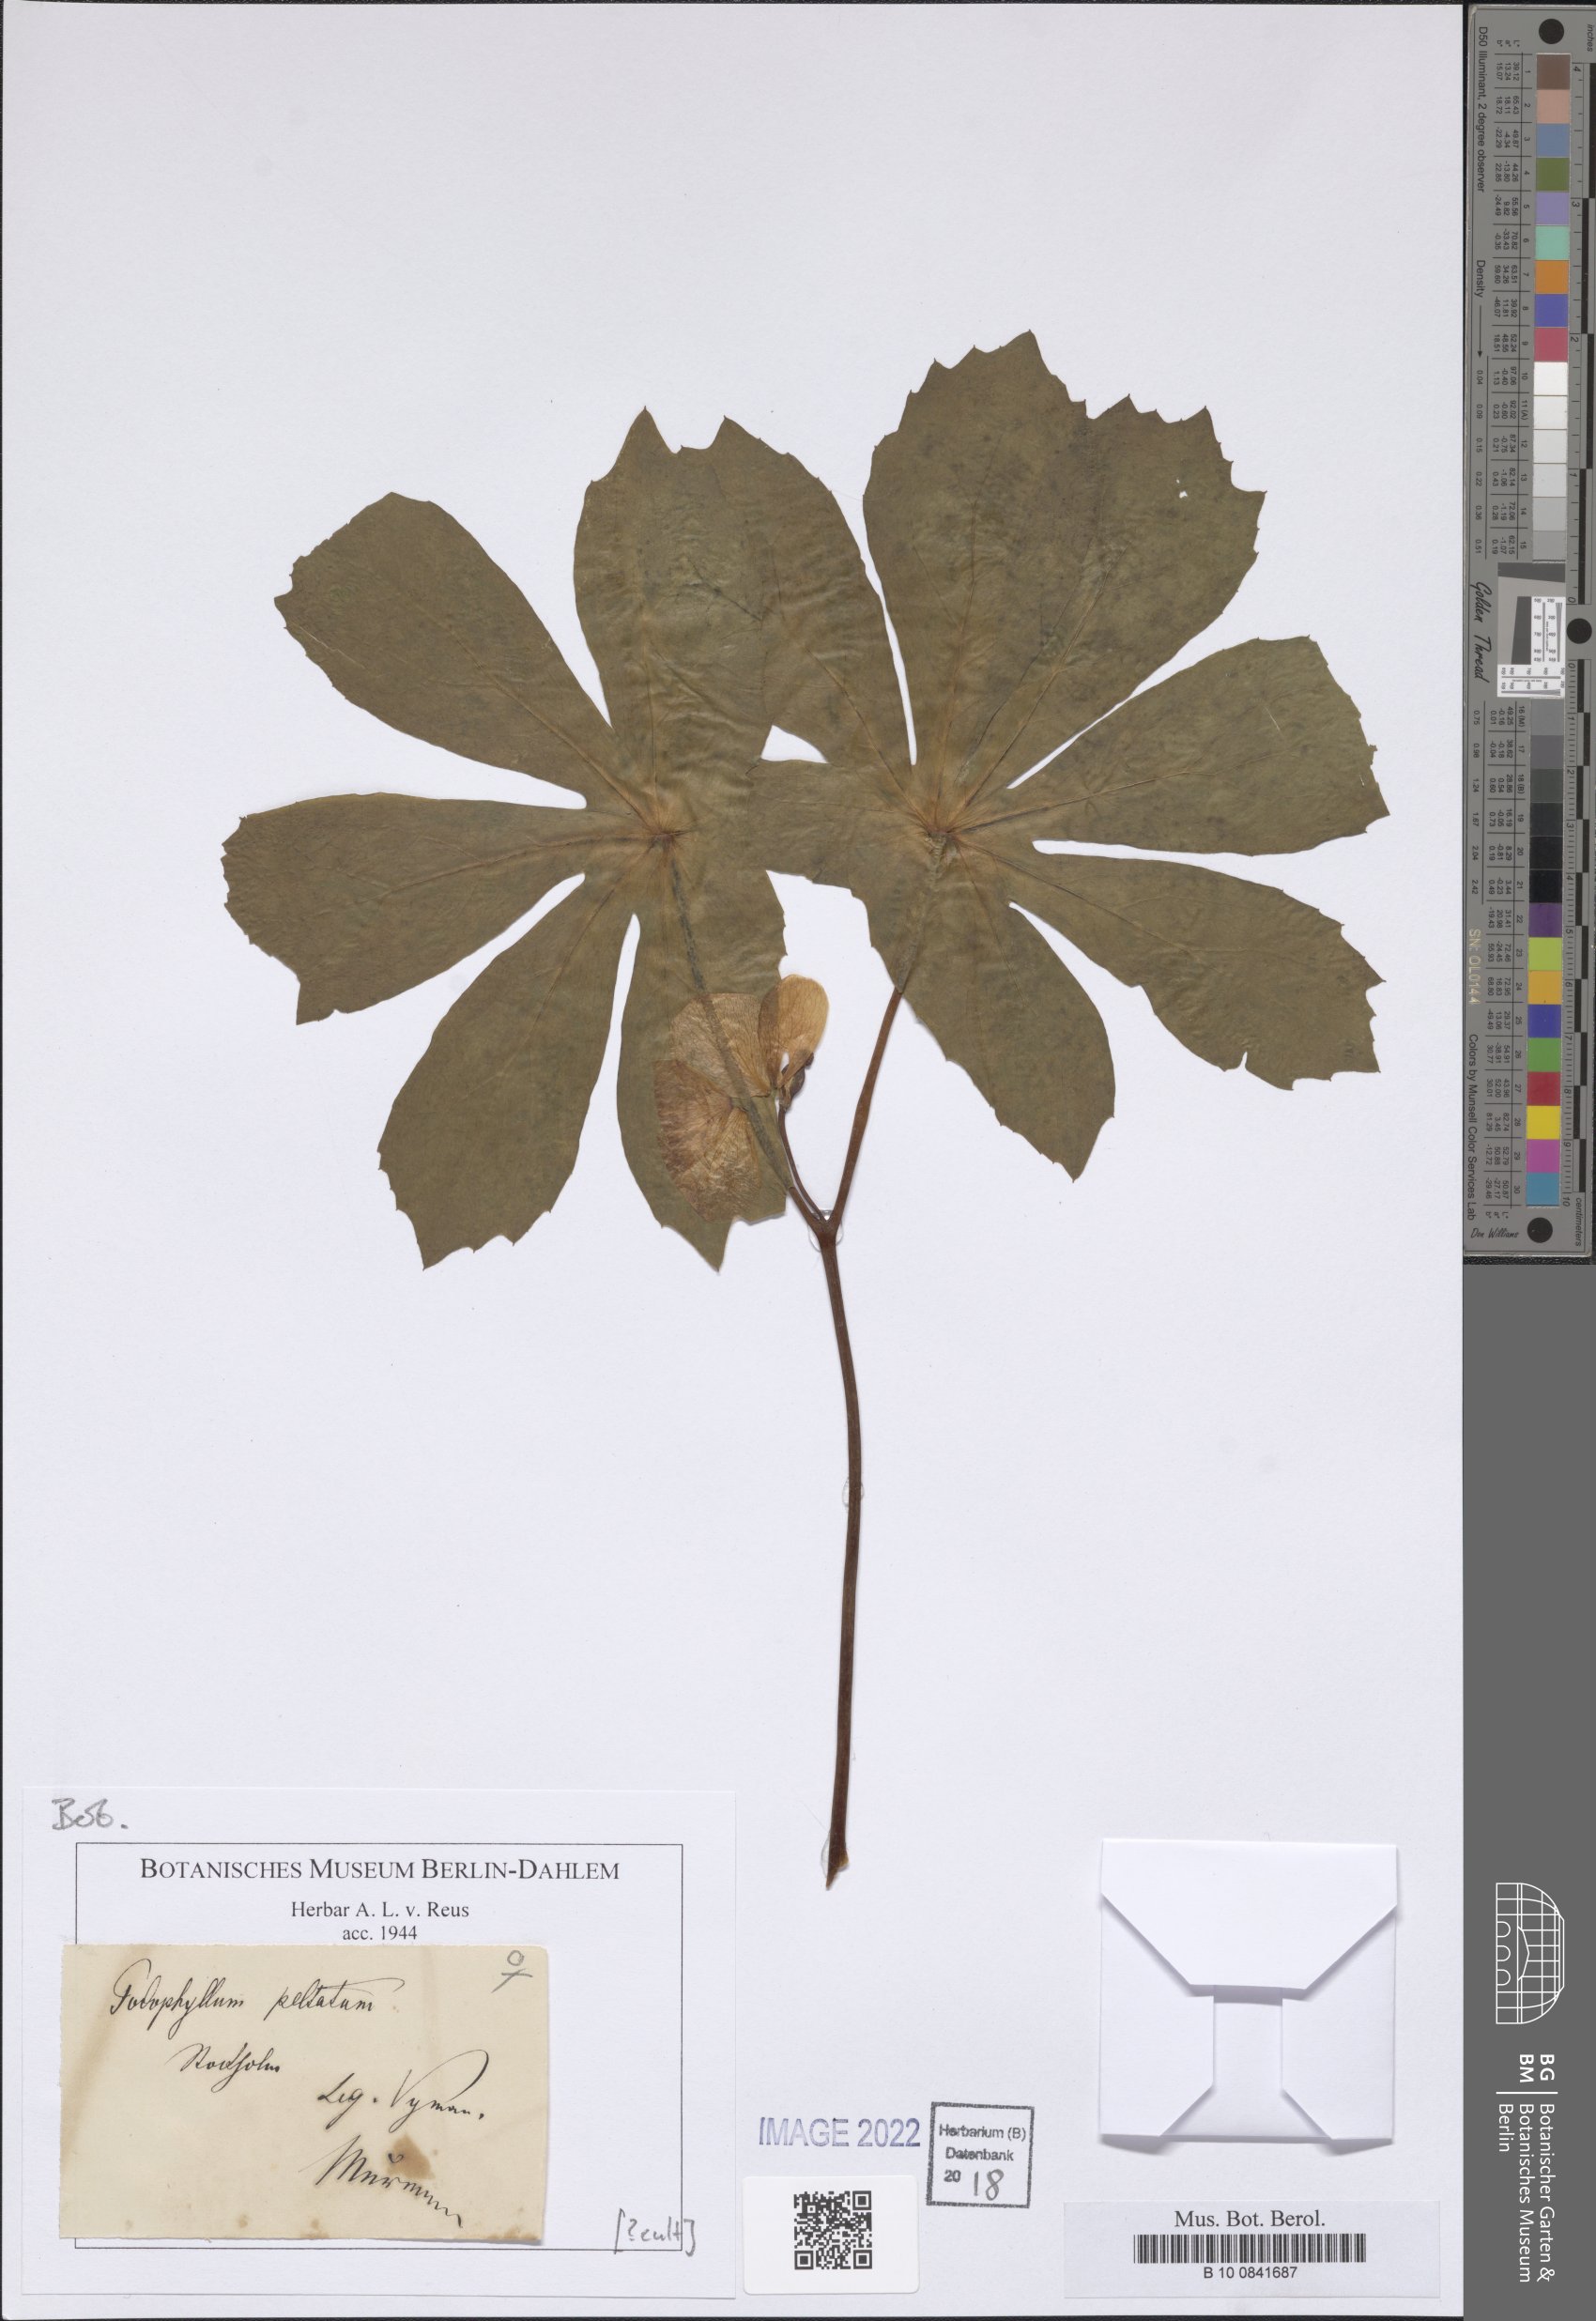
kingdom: Plantae
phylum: Tracheophyta
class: Magnoliopsida
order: Ranunculales
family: Berberidaceae
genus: Podophyllum
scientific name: Podophyllum peltatum
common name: Wild mandrake
